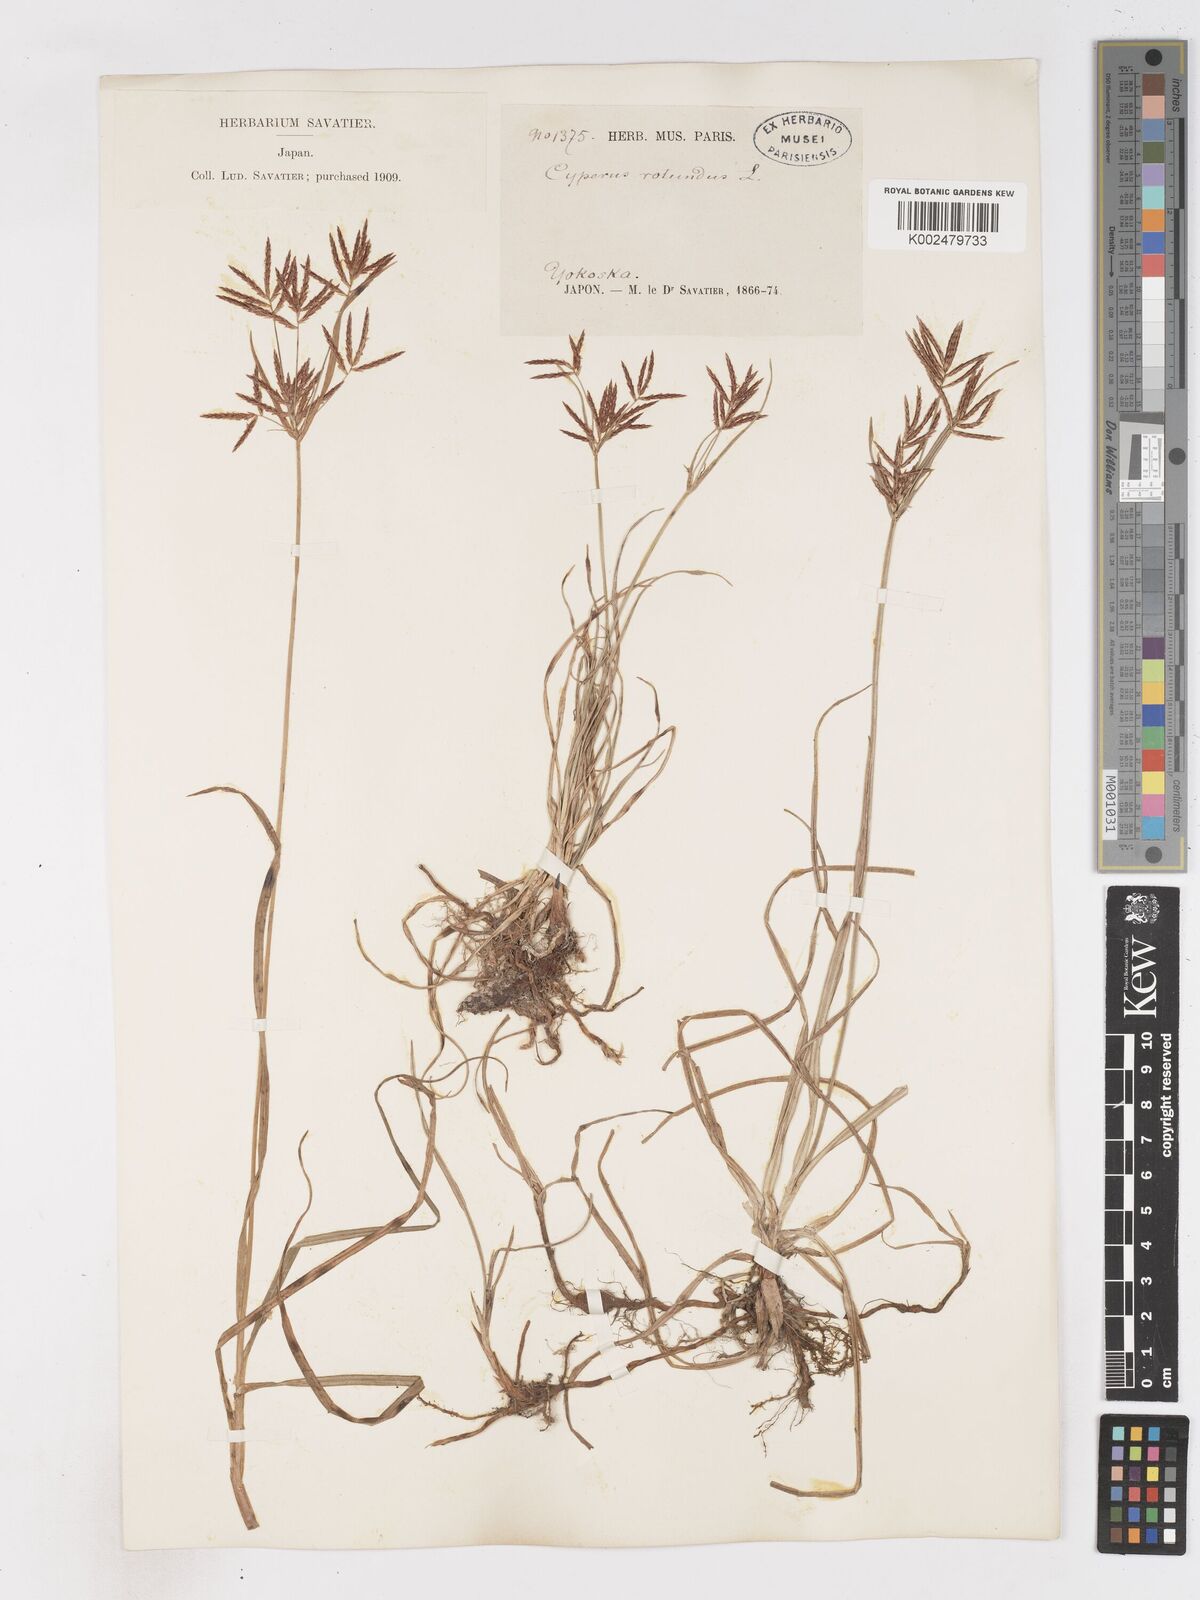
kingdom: Plantae
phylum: Tracheophyta
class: Liliopsida
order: Poales
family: Cyperaceae
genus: Cyperus
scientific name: Cyperus rotundus
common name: Nutgrass
